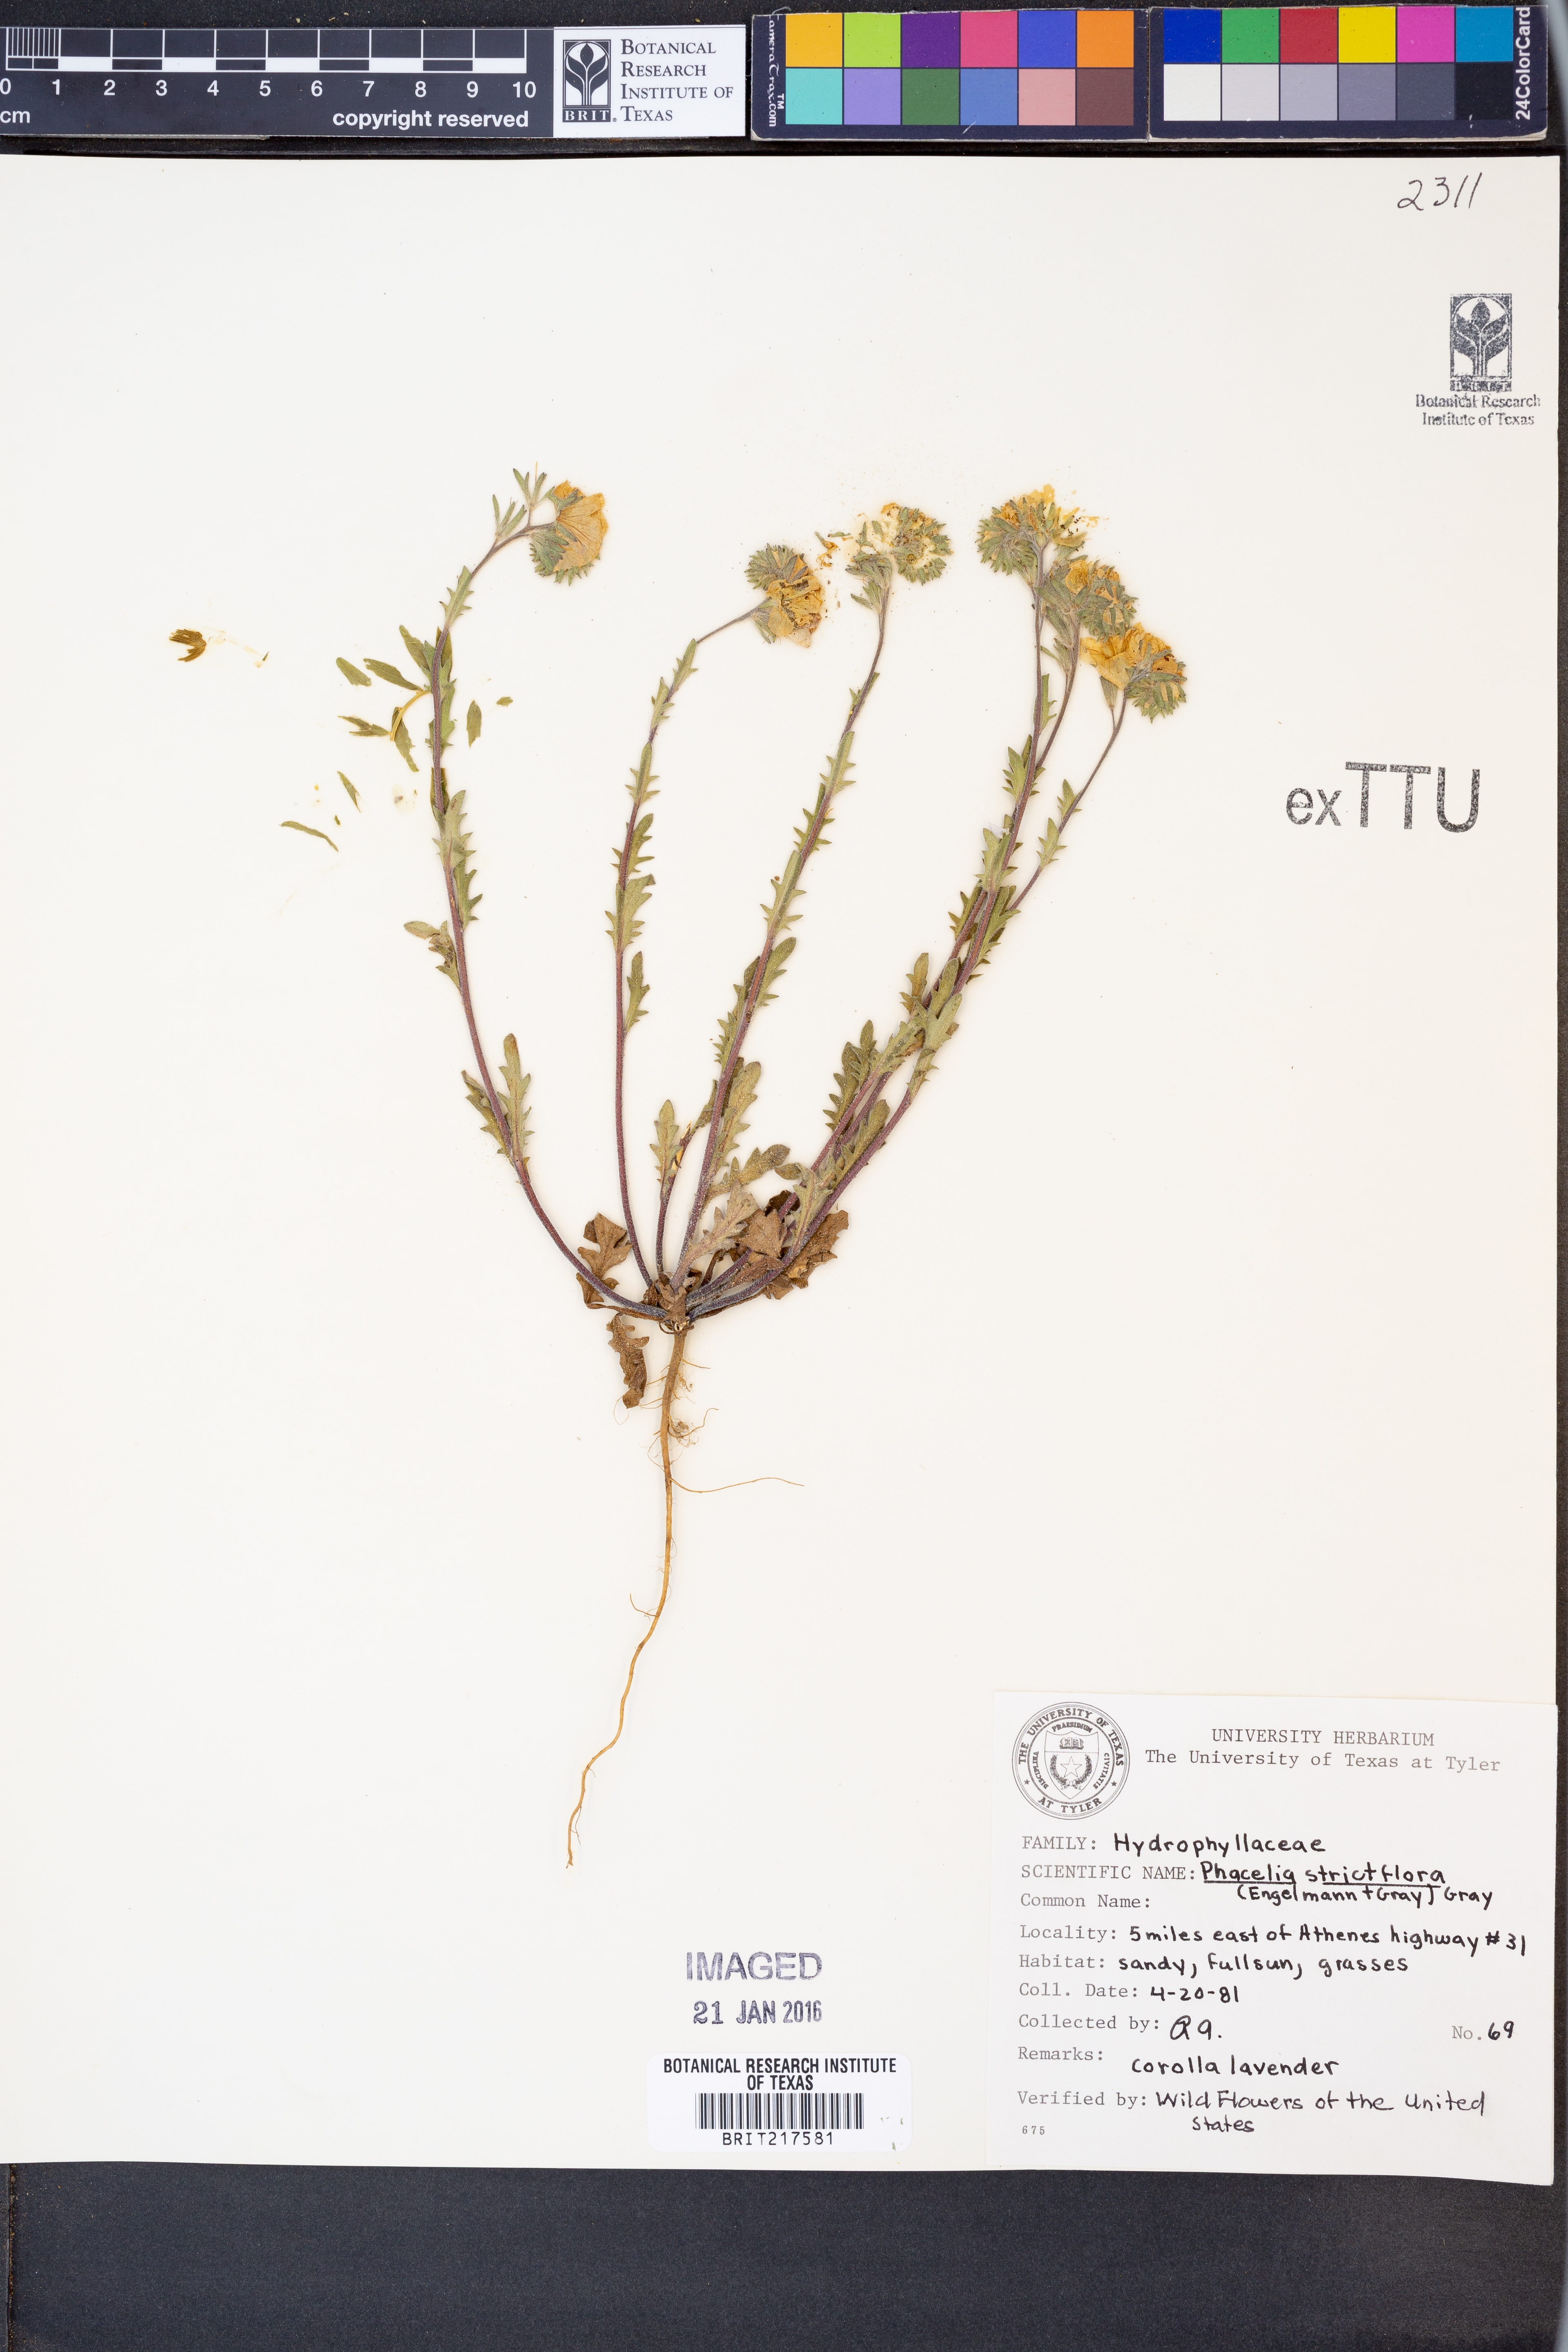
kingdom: Plantae
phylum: Tracheophyta
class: Magnoliopsida
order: Boraginales
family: Hydrophyllaceae
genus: Phacelia
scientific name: Phacelia strictiflora
